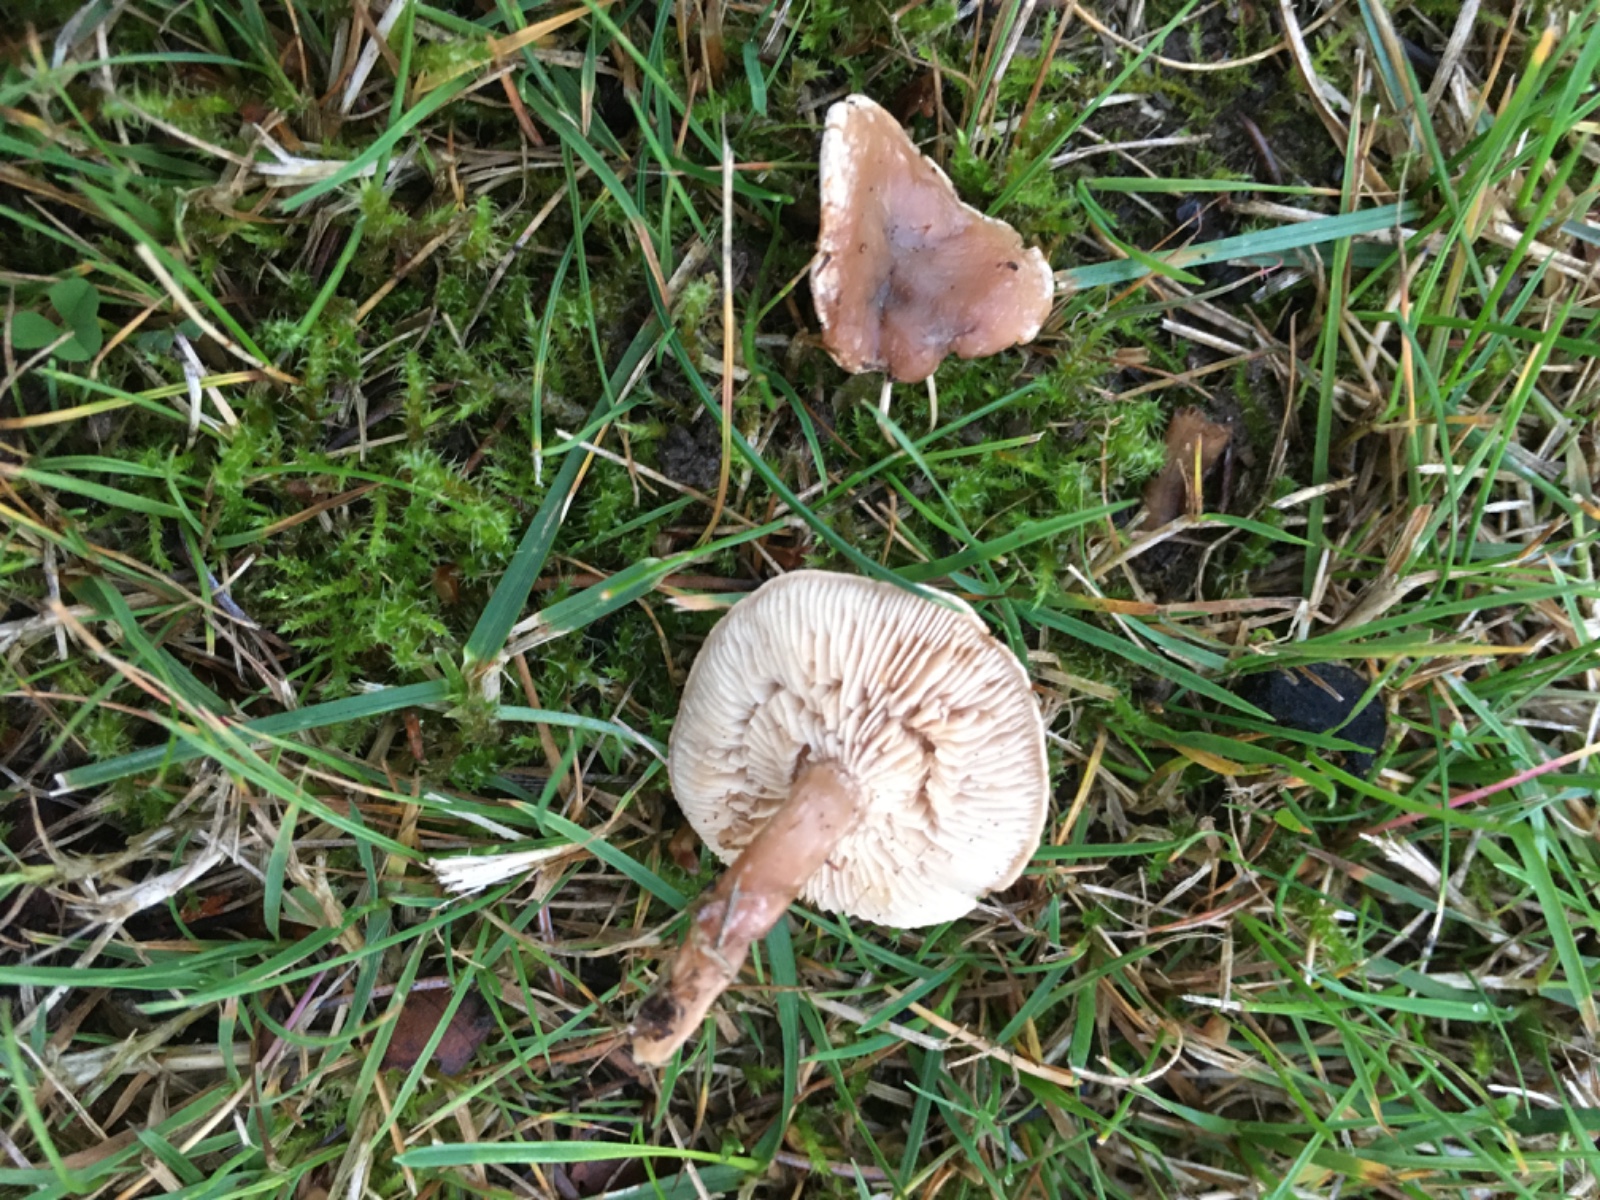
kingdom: Fungi
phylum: Basidiomycota
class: Agaricomycetes
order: Agaricales
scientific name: Agaricales
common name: champignonordenen
